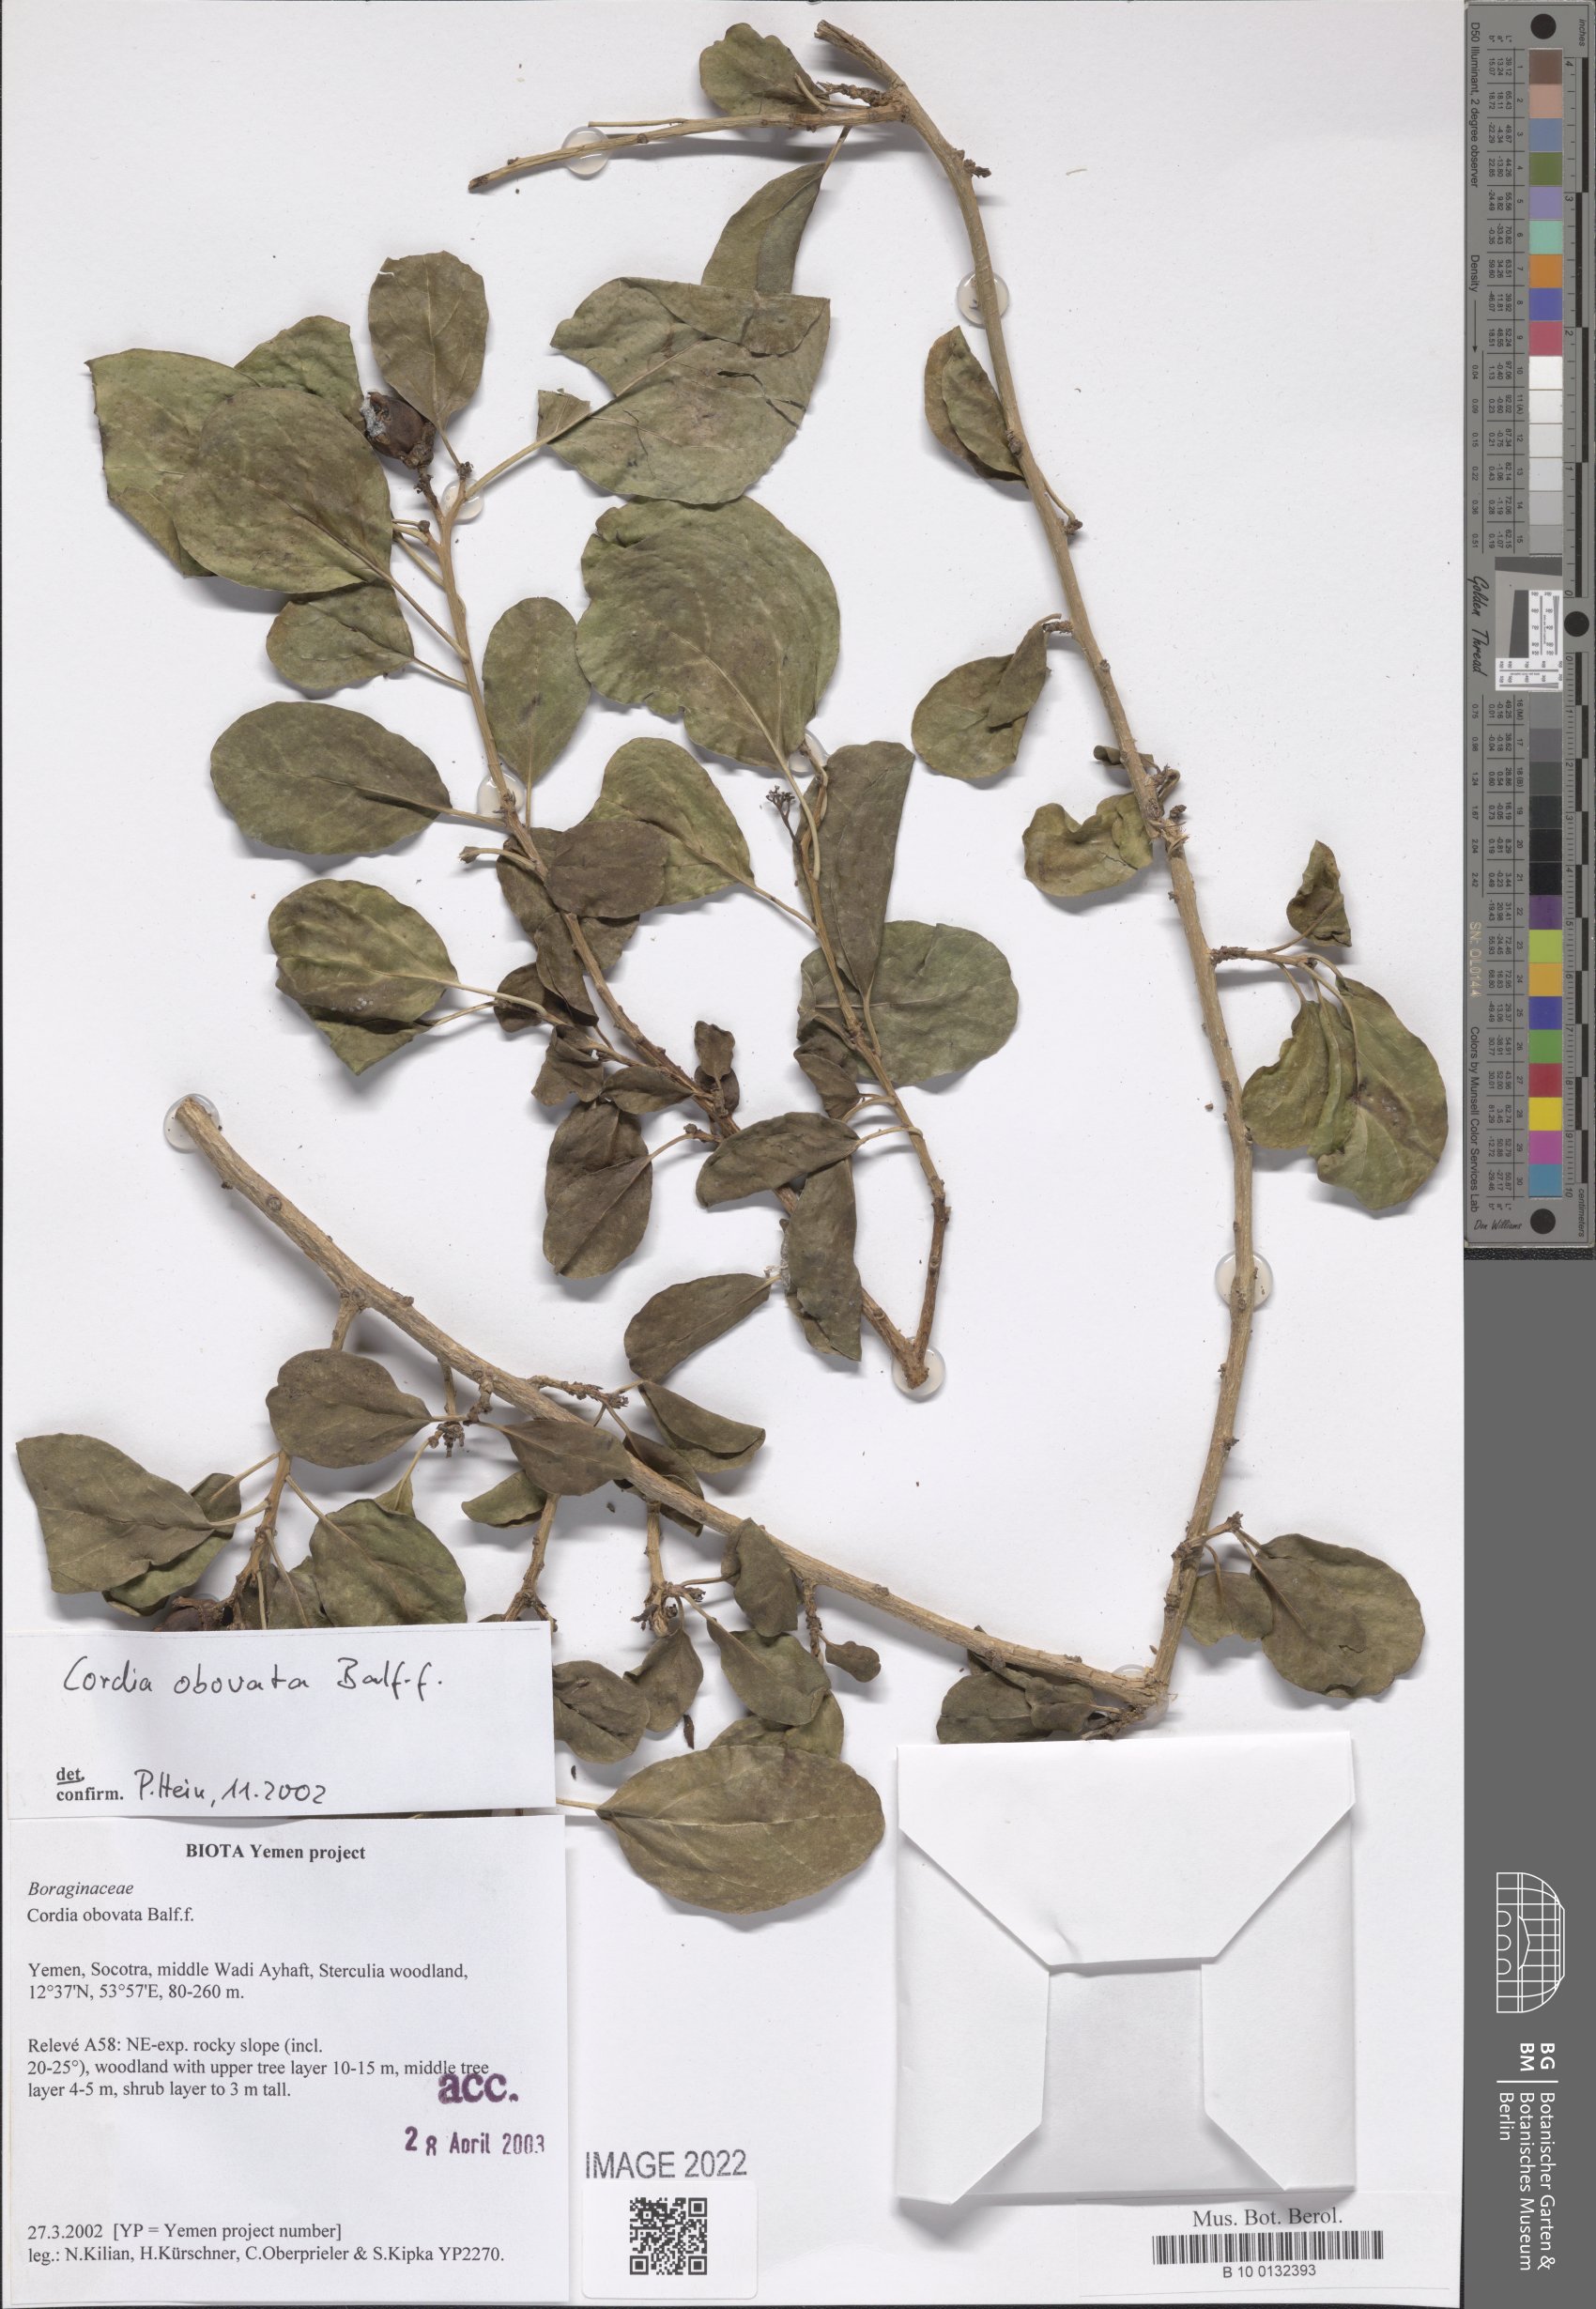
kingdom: Plantae
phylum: Tracheophyta
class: Magnoliopsida
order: Boraginales
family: Cordiaceae
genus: Cordia
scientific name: Cordia obovata
